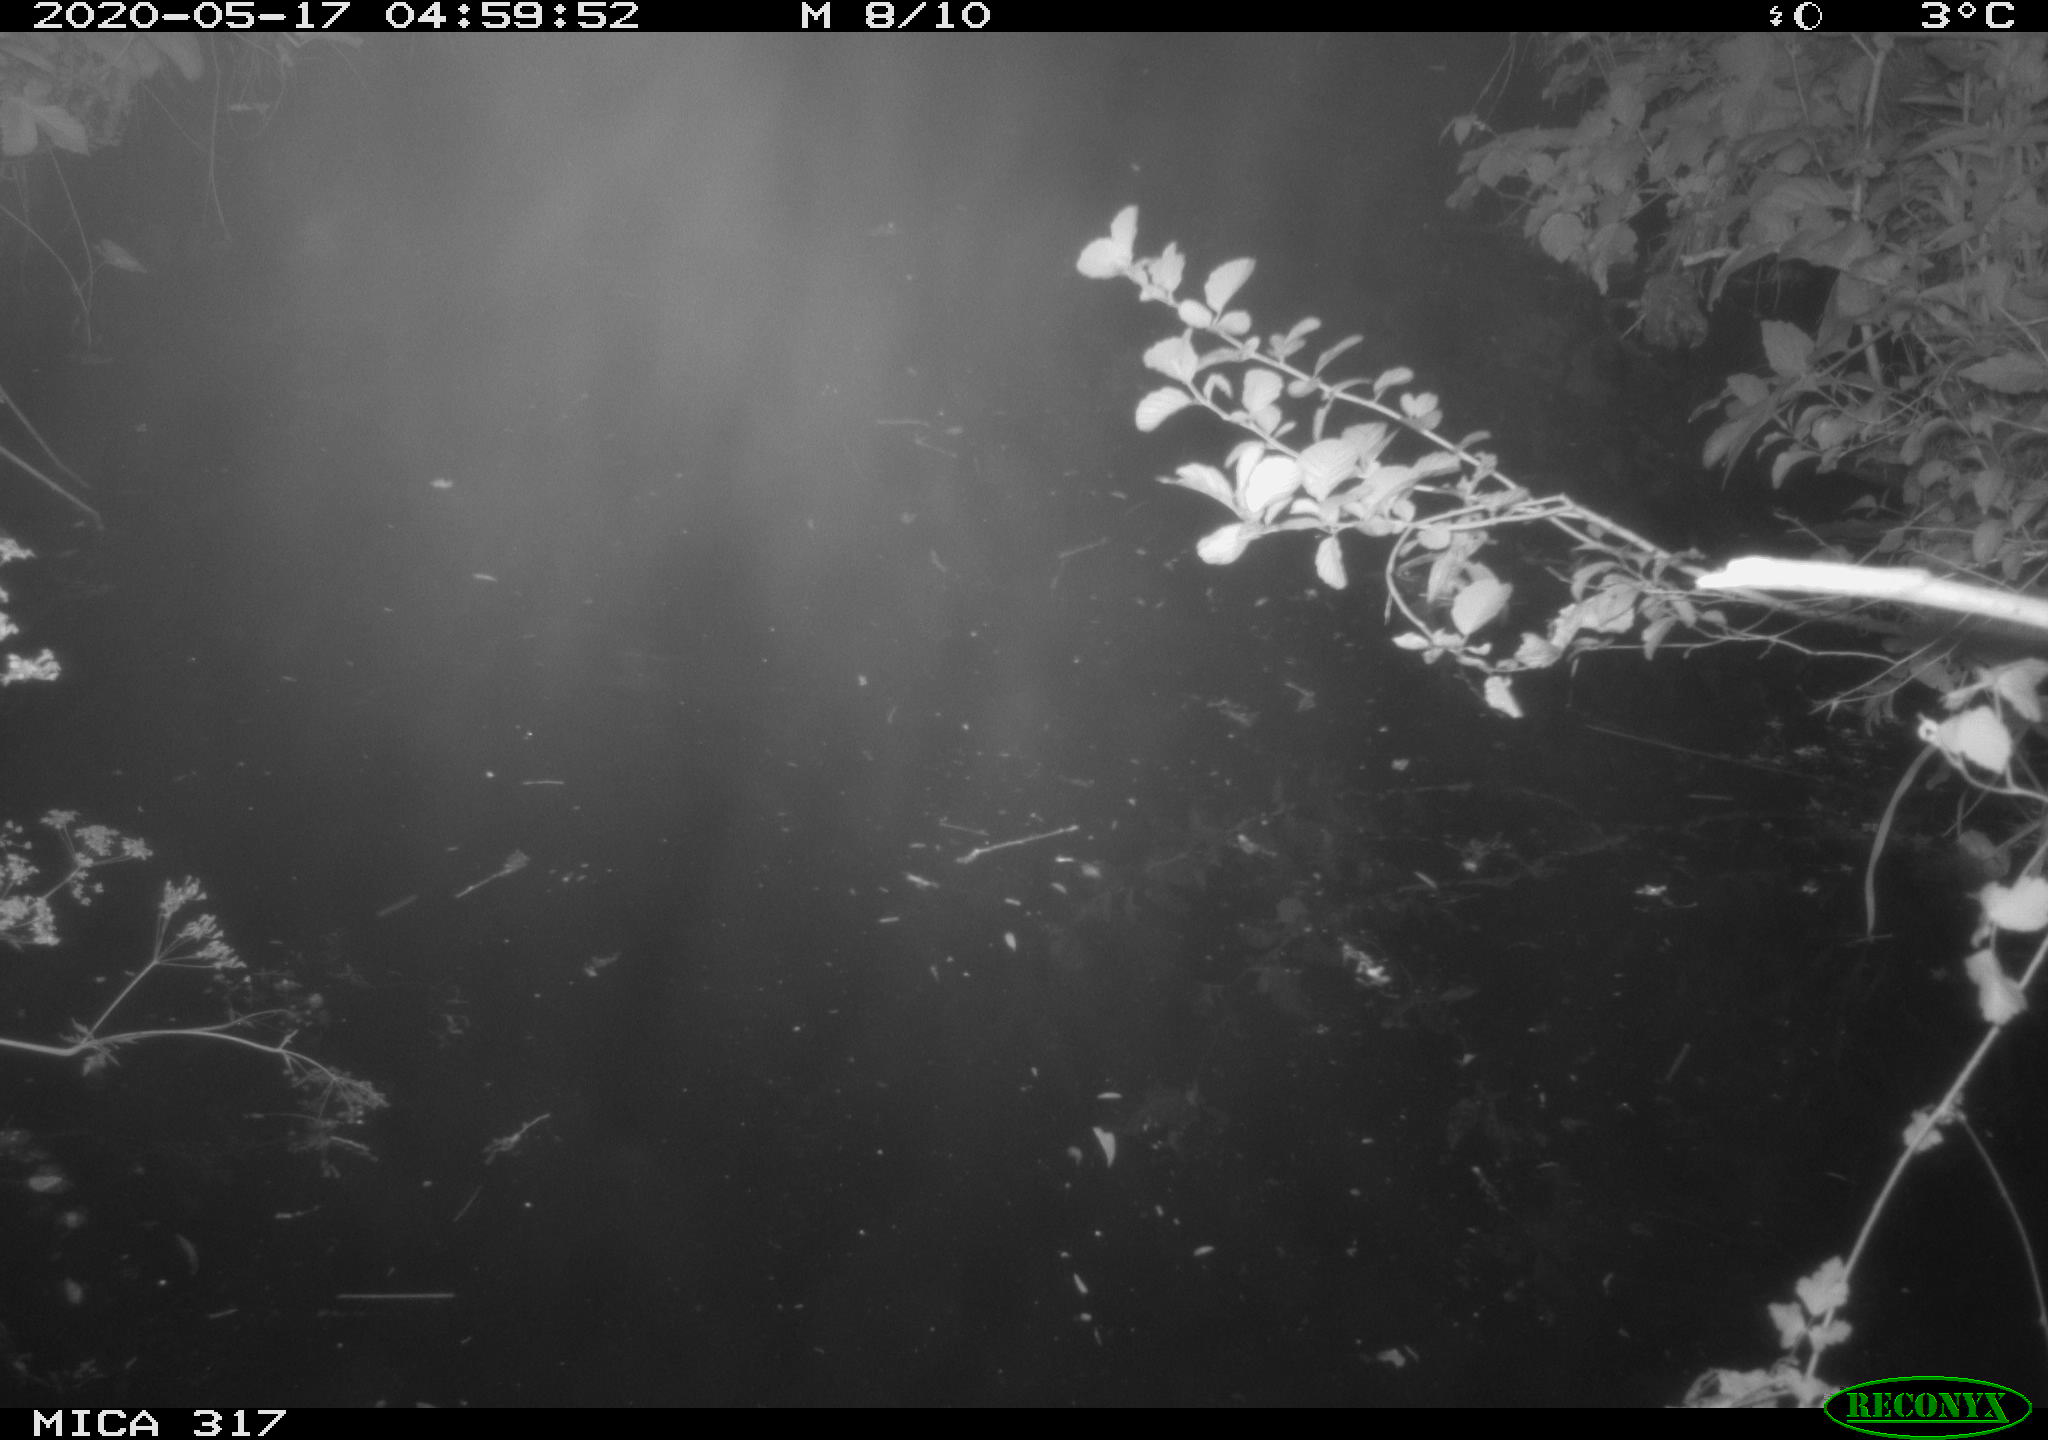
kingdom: Animalia
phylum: Chordata
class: Aves
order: Anseriformes
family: Anatidae
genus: Anas
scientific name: Anas platyrhynchos
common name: Mallard
